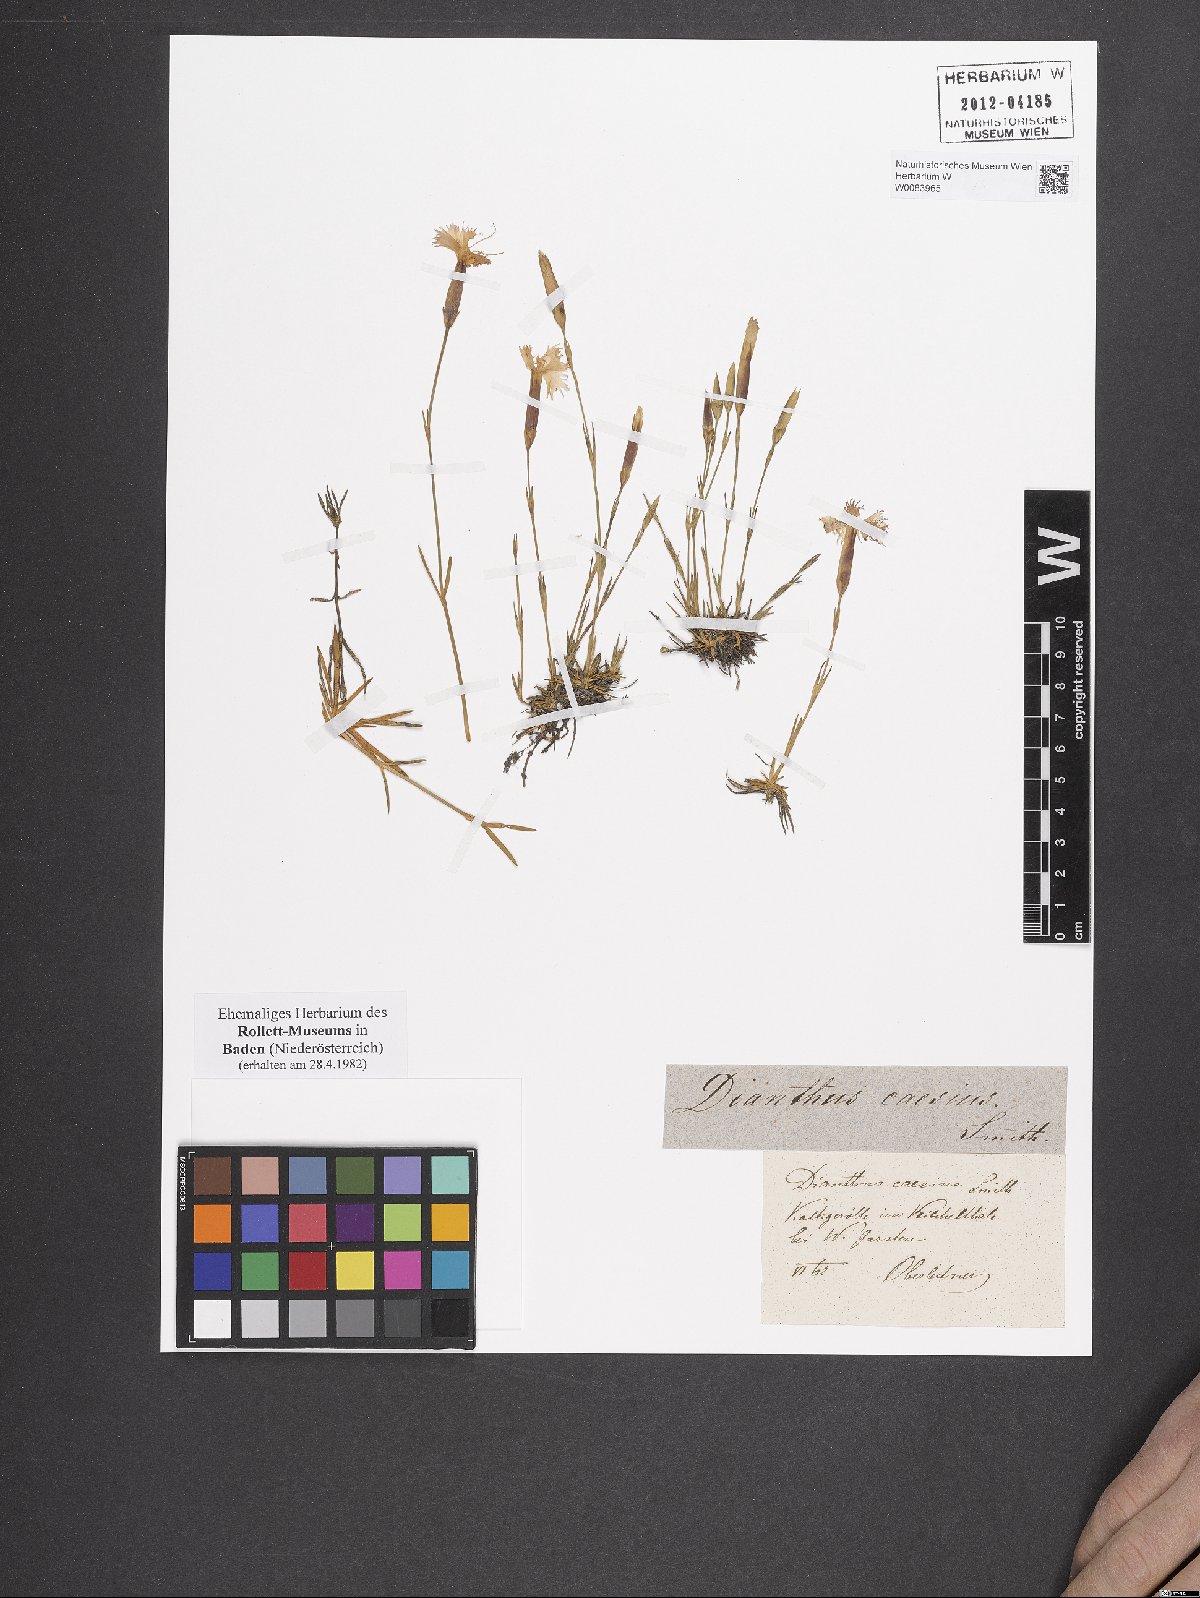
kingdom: Plantae
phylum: Tracheophyta
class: Magnoliopsida
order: Caryophyllales
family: Caryophyllaceae
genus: Dianthus
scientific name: Dianthus gratianopolitanus
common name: Cheddar pink
